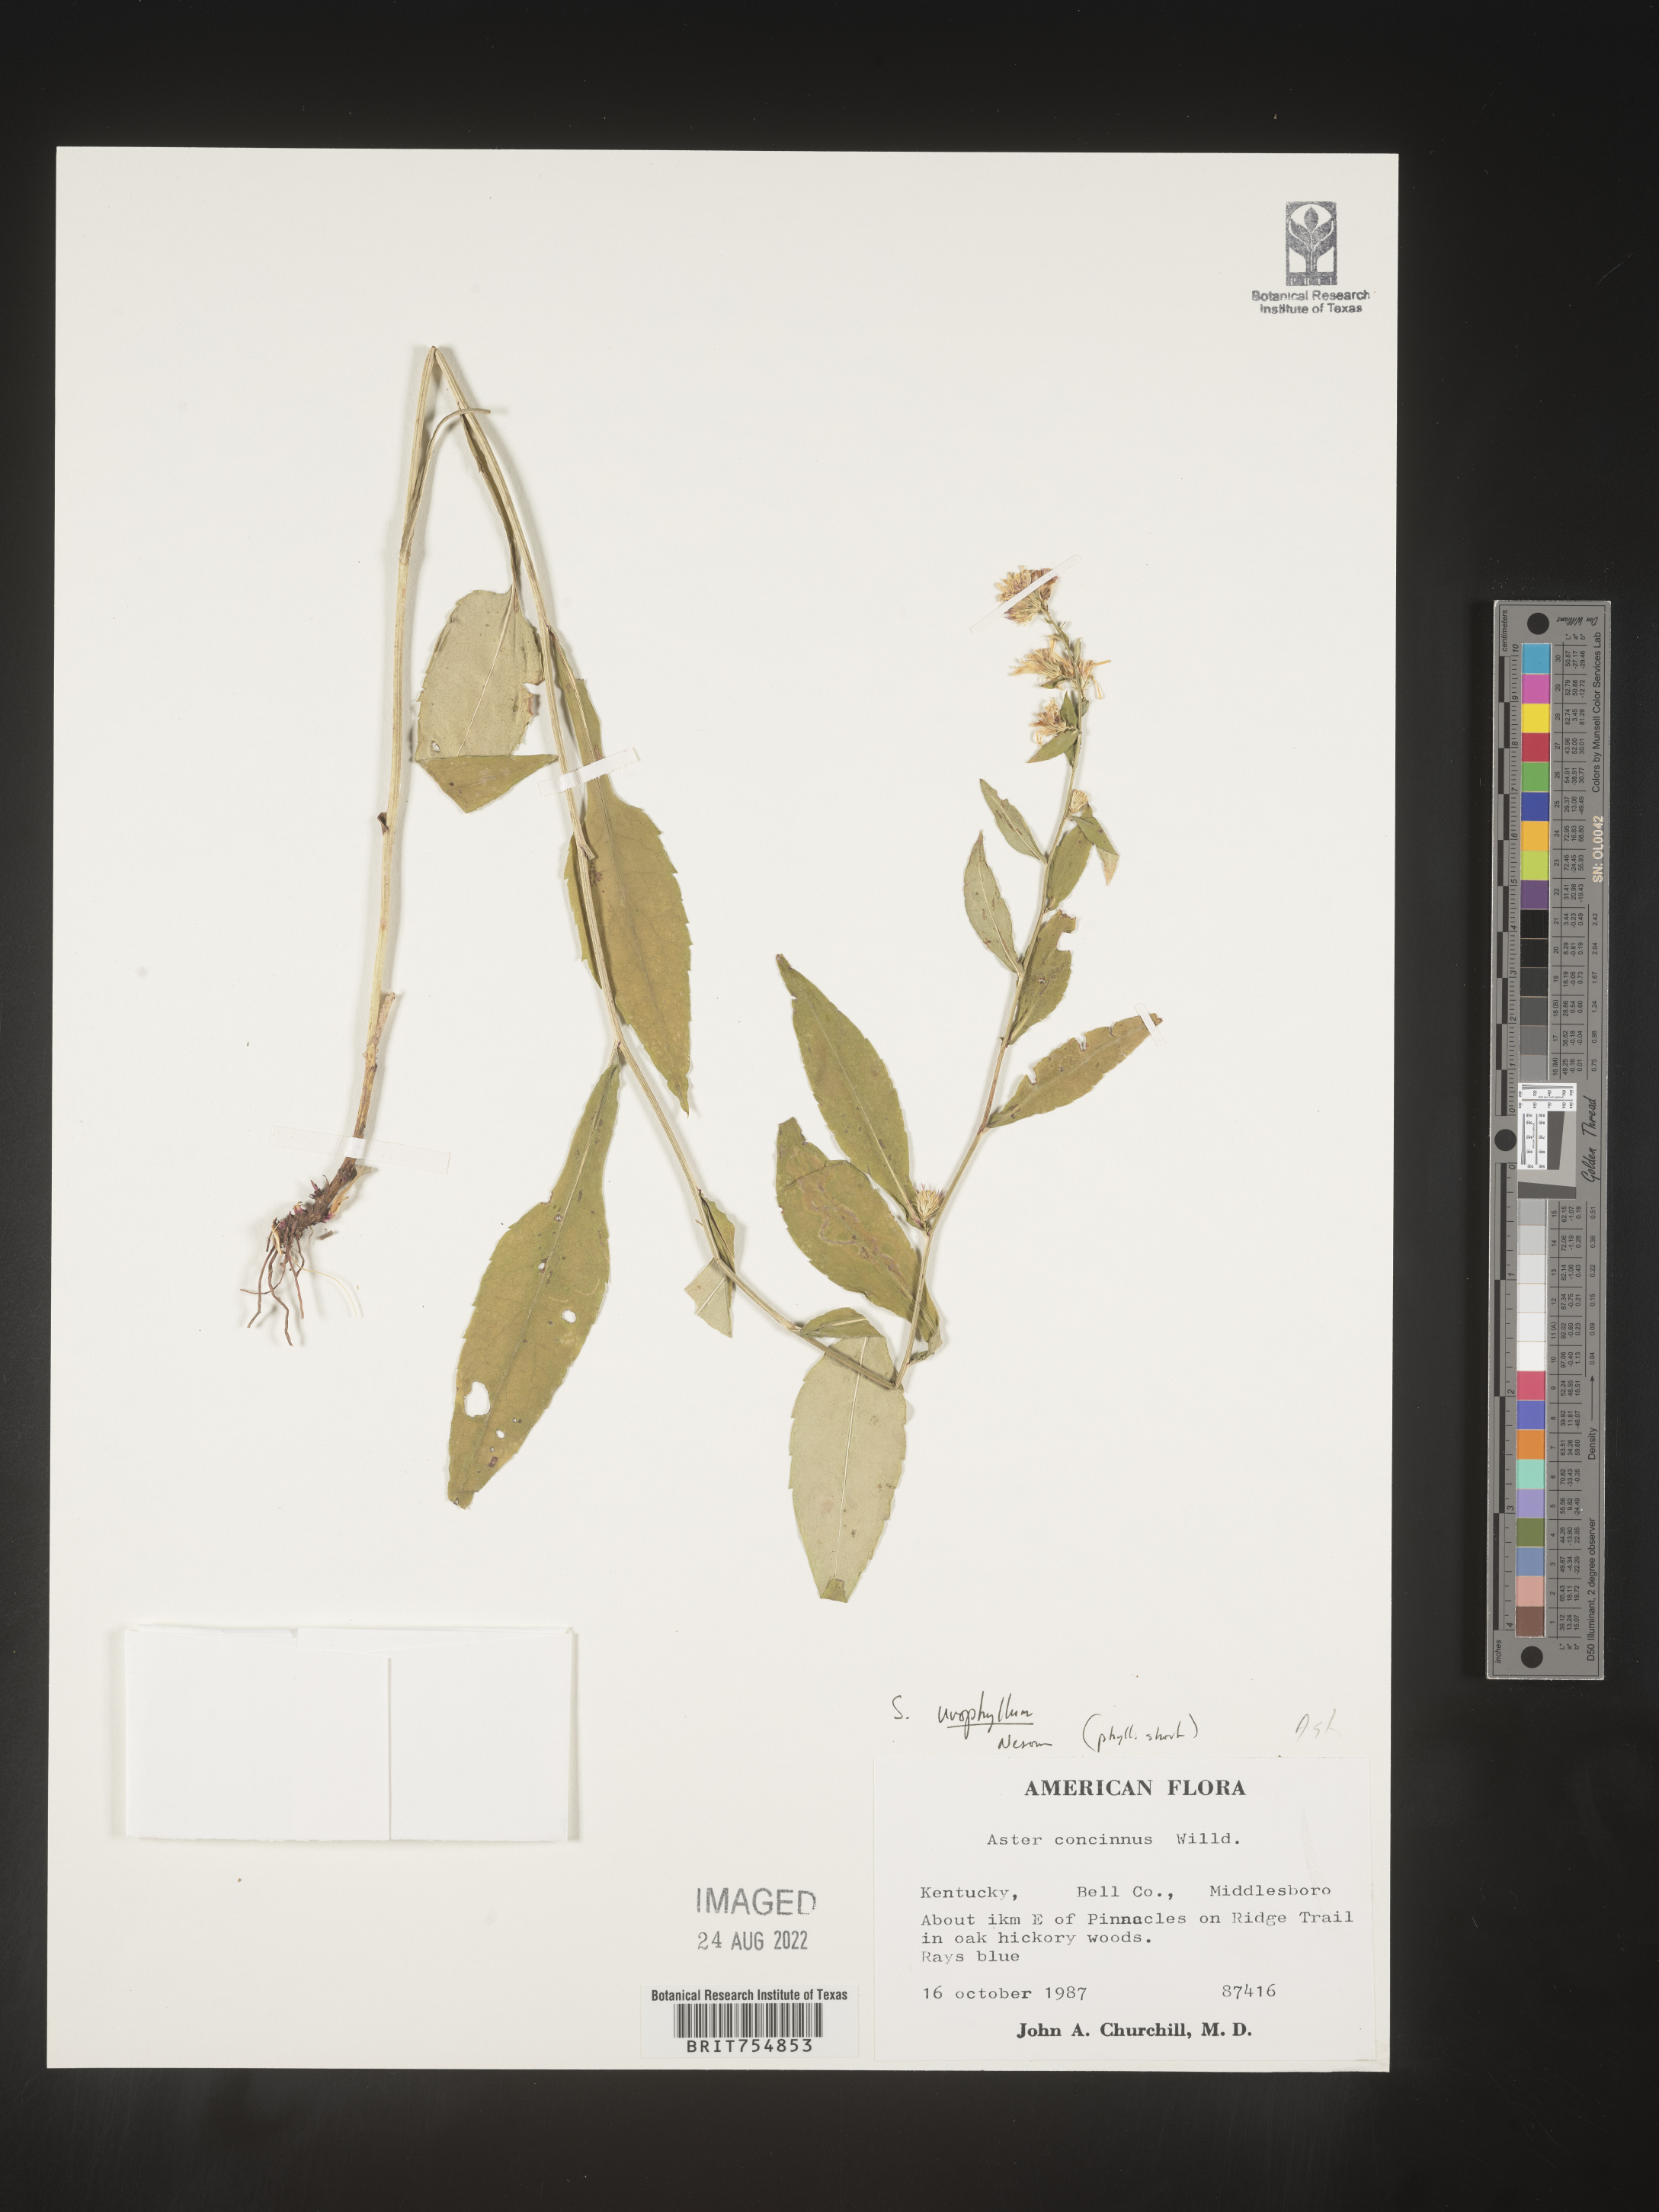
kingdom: Plantae
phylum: Tracheophyta
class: Magnoliopsida
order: Asterales
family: Asteraceae
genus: Symphyotrichum
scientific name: Symphyotrichum urophyllum
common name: Arrow-leaved aster
